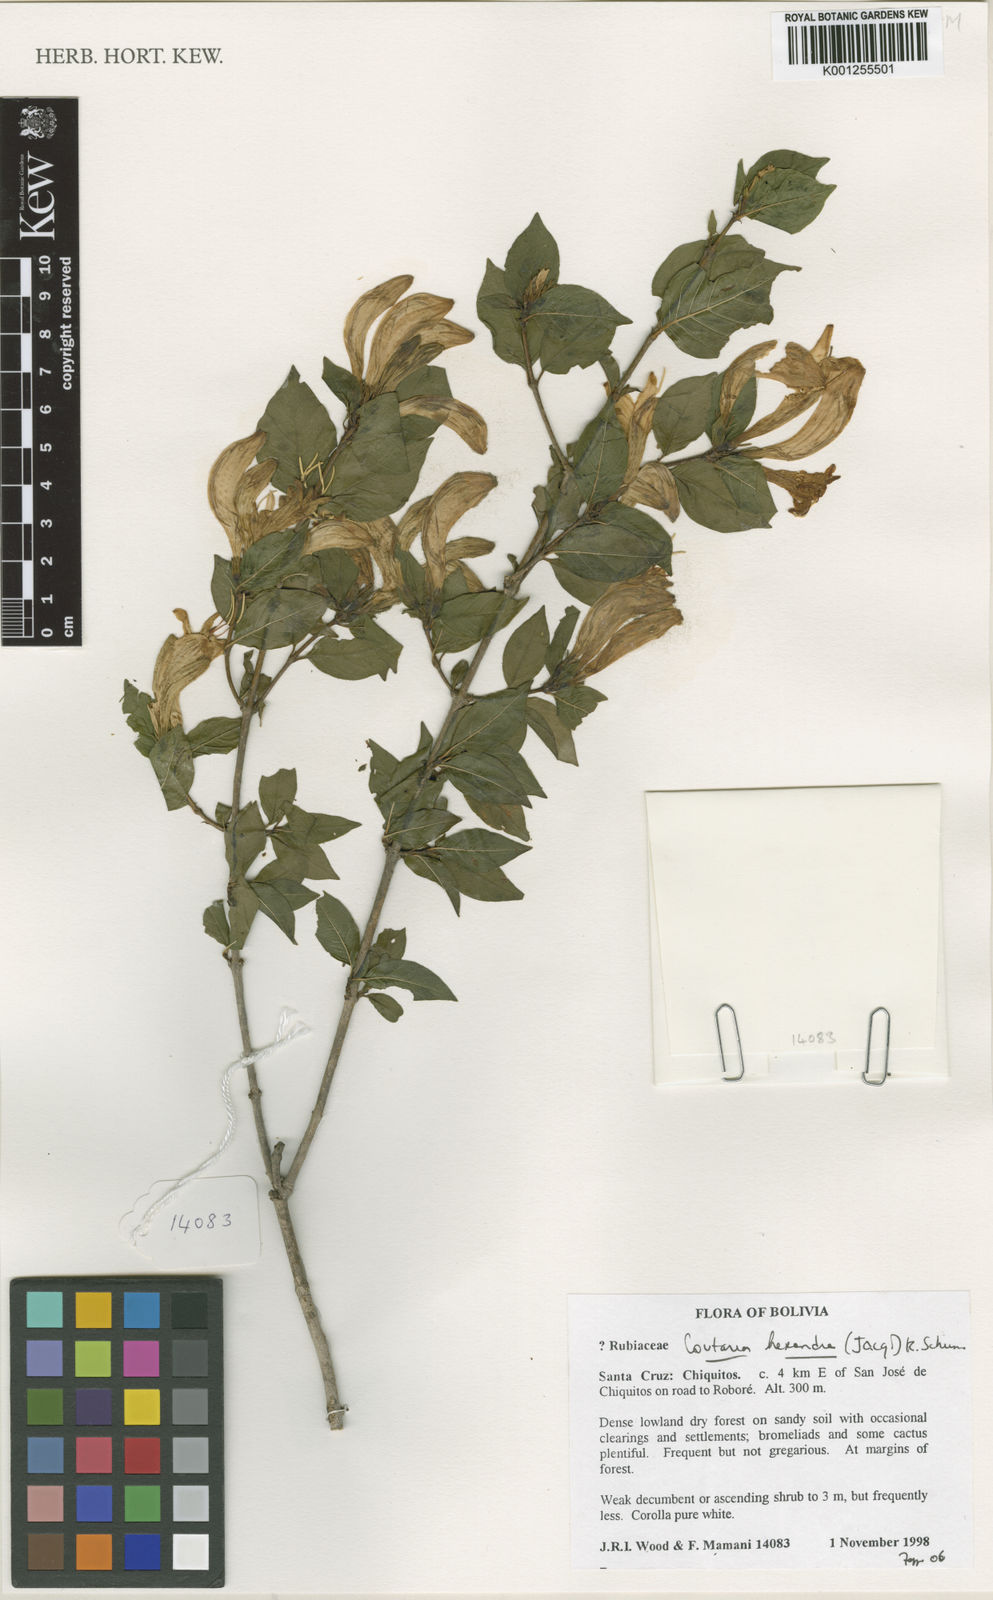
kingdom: Plantae
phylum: Tracheophyta
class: Magnoliopsida
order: Gentianales
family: Rubiaceae
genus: Coutarea
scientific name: Coutarea hexandra
